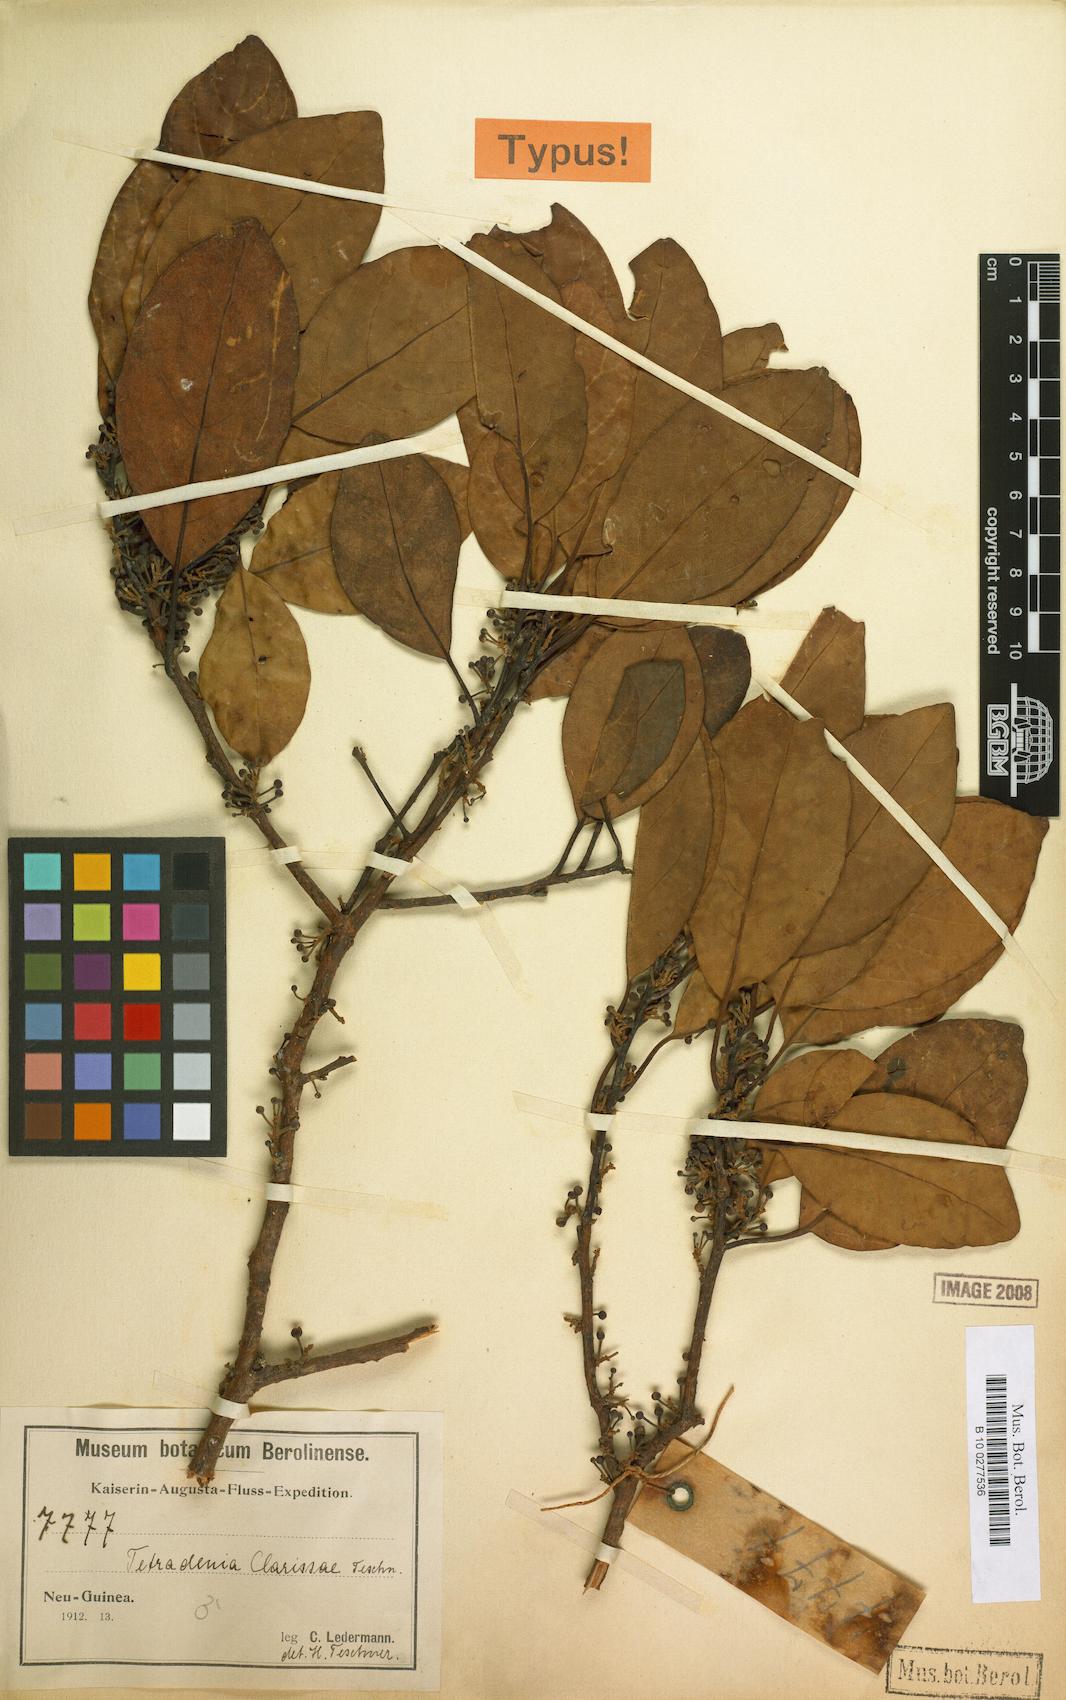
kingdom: Plantae
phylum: Tracheophyta
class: Magnoliopsida
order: Laurales
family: Lauraceae
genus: Litsea
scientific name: Litsea clarissae
